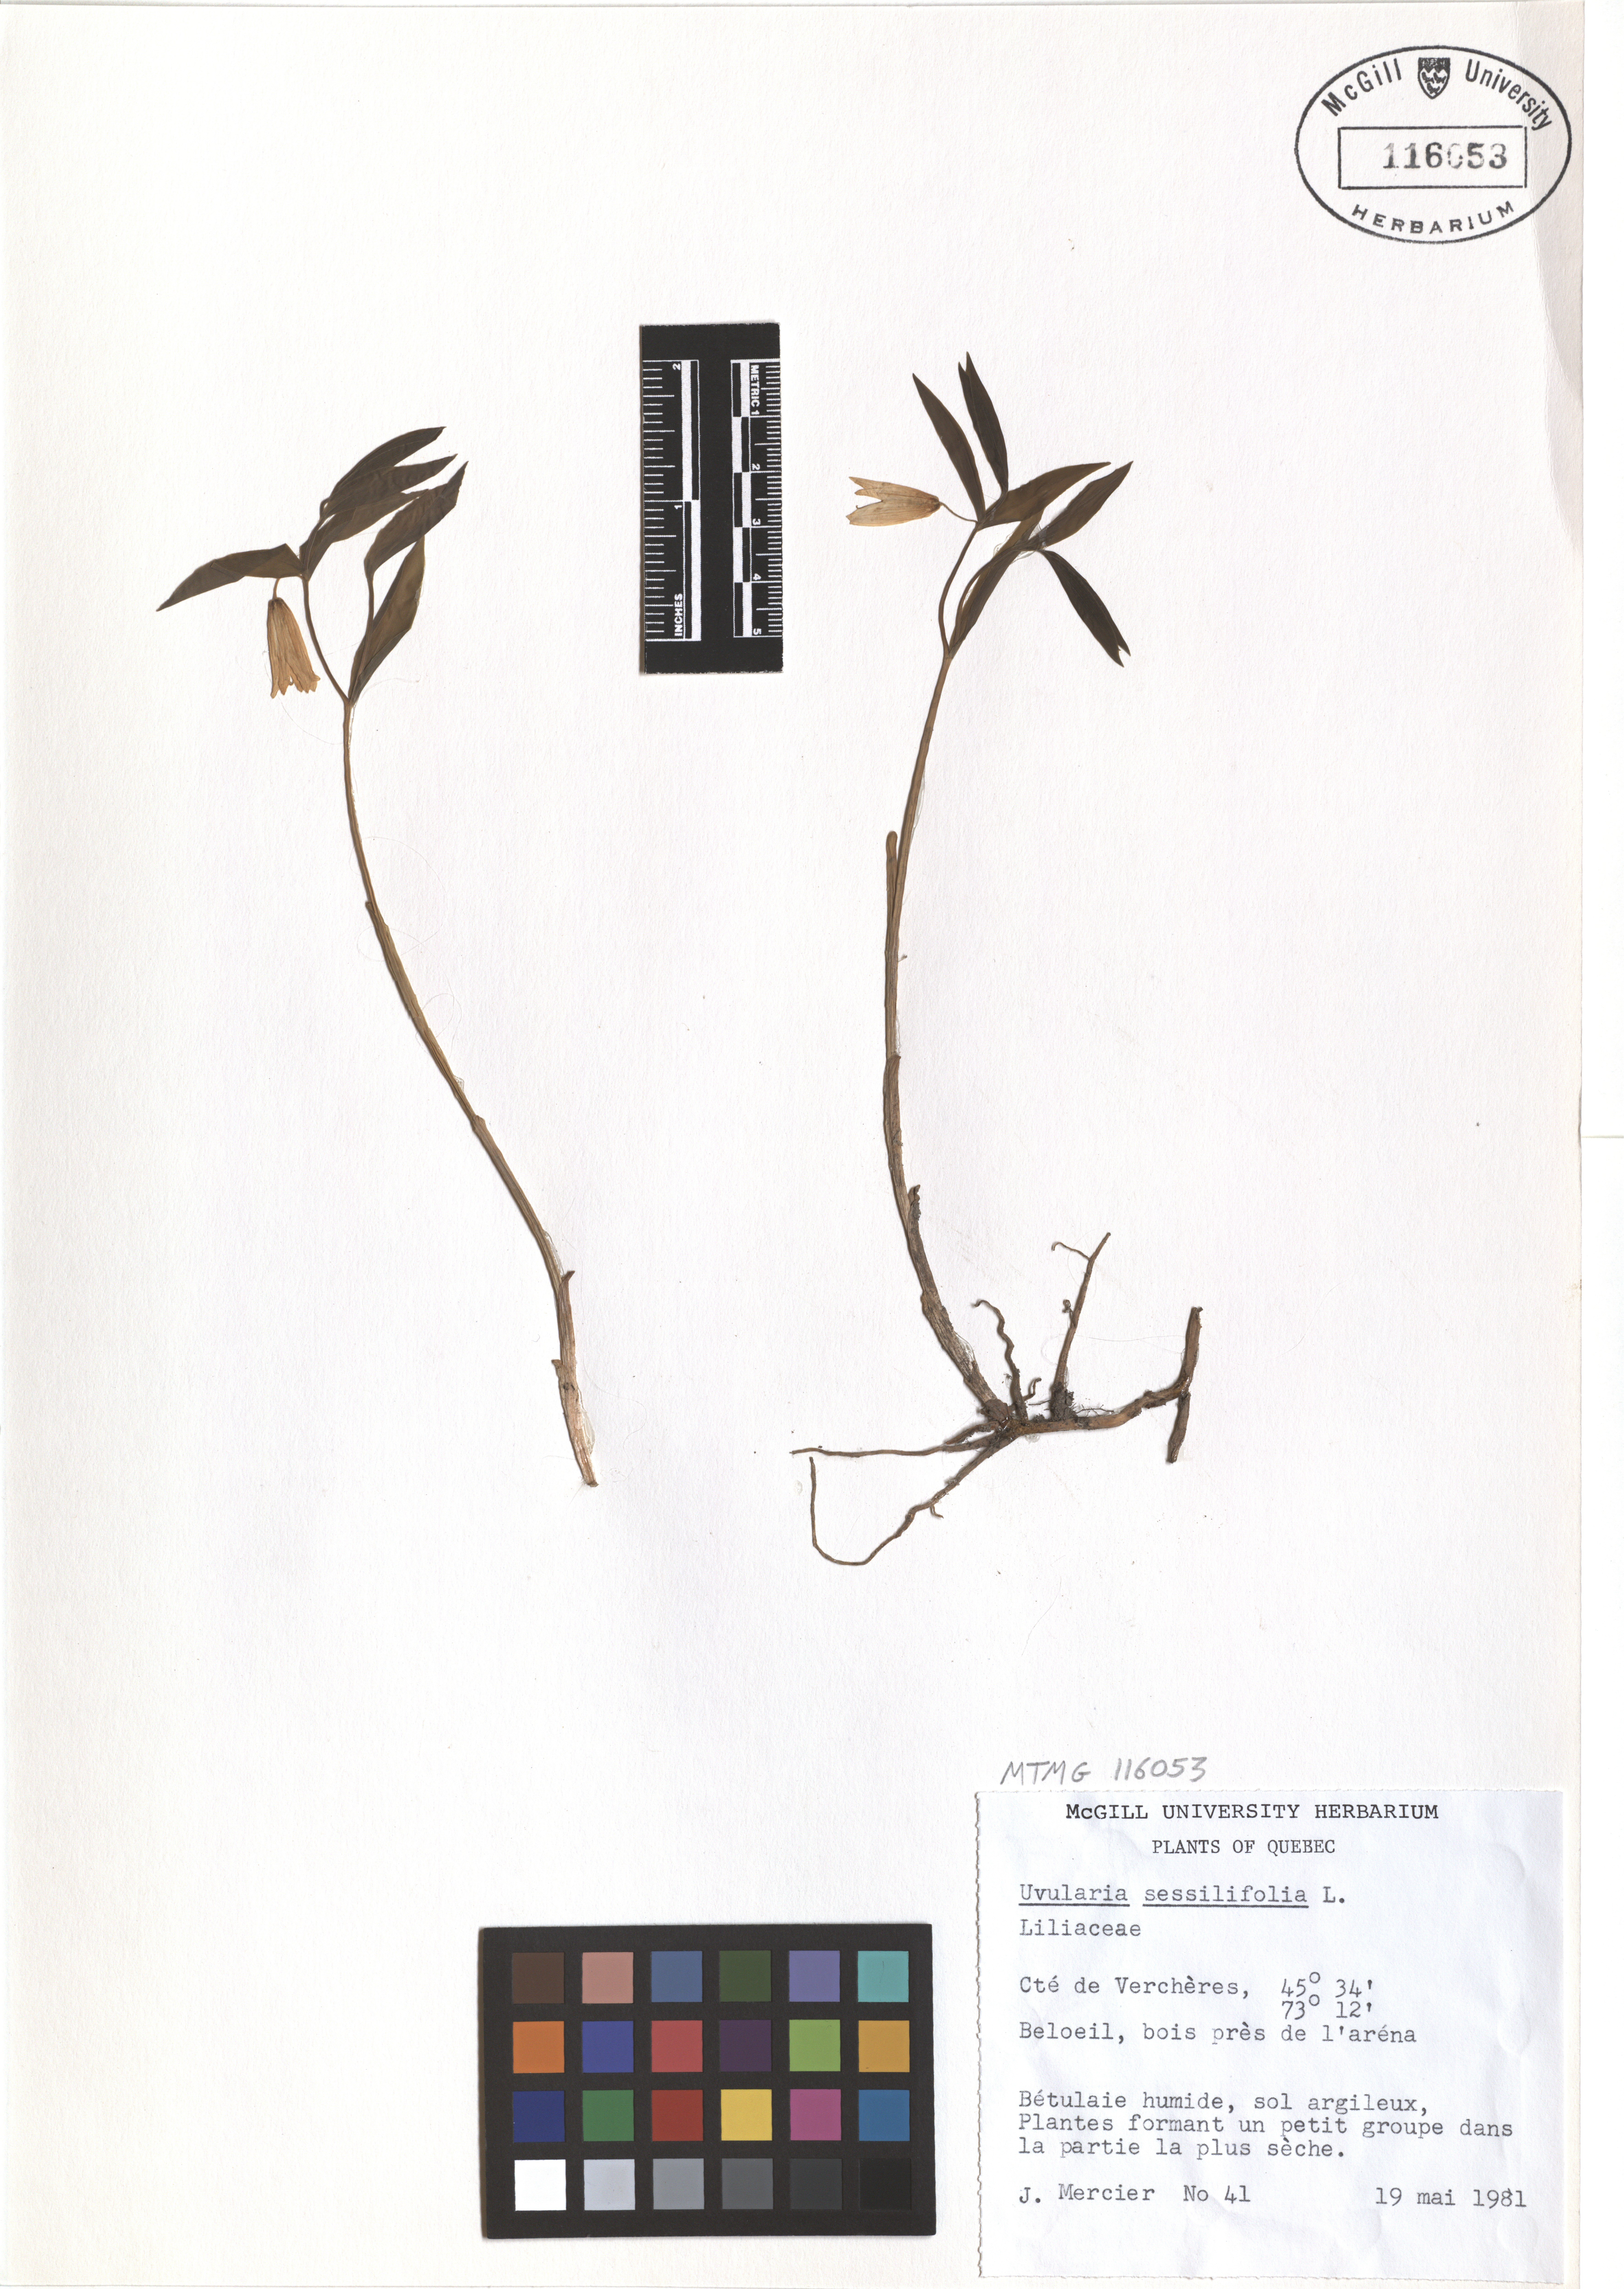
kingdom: Plantae
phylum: Tracheophyta
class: Liliopsida
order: Liliales
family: Colchicaceae
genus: Uvularia
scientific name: Uvularia sessilifolia
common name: Straw-lily
